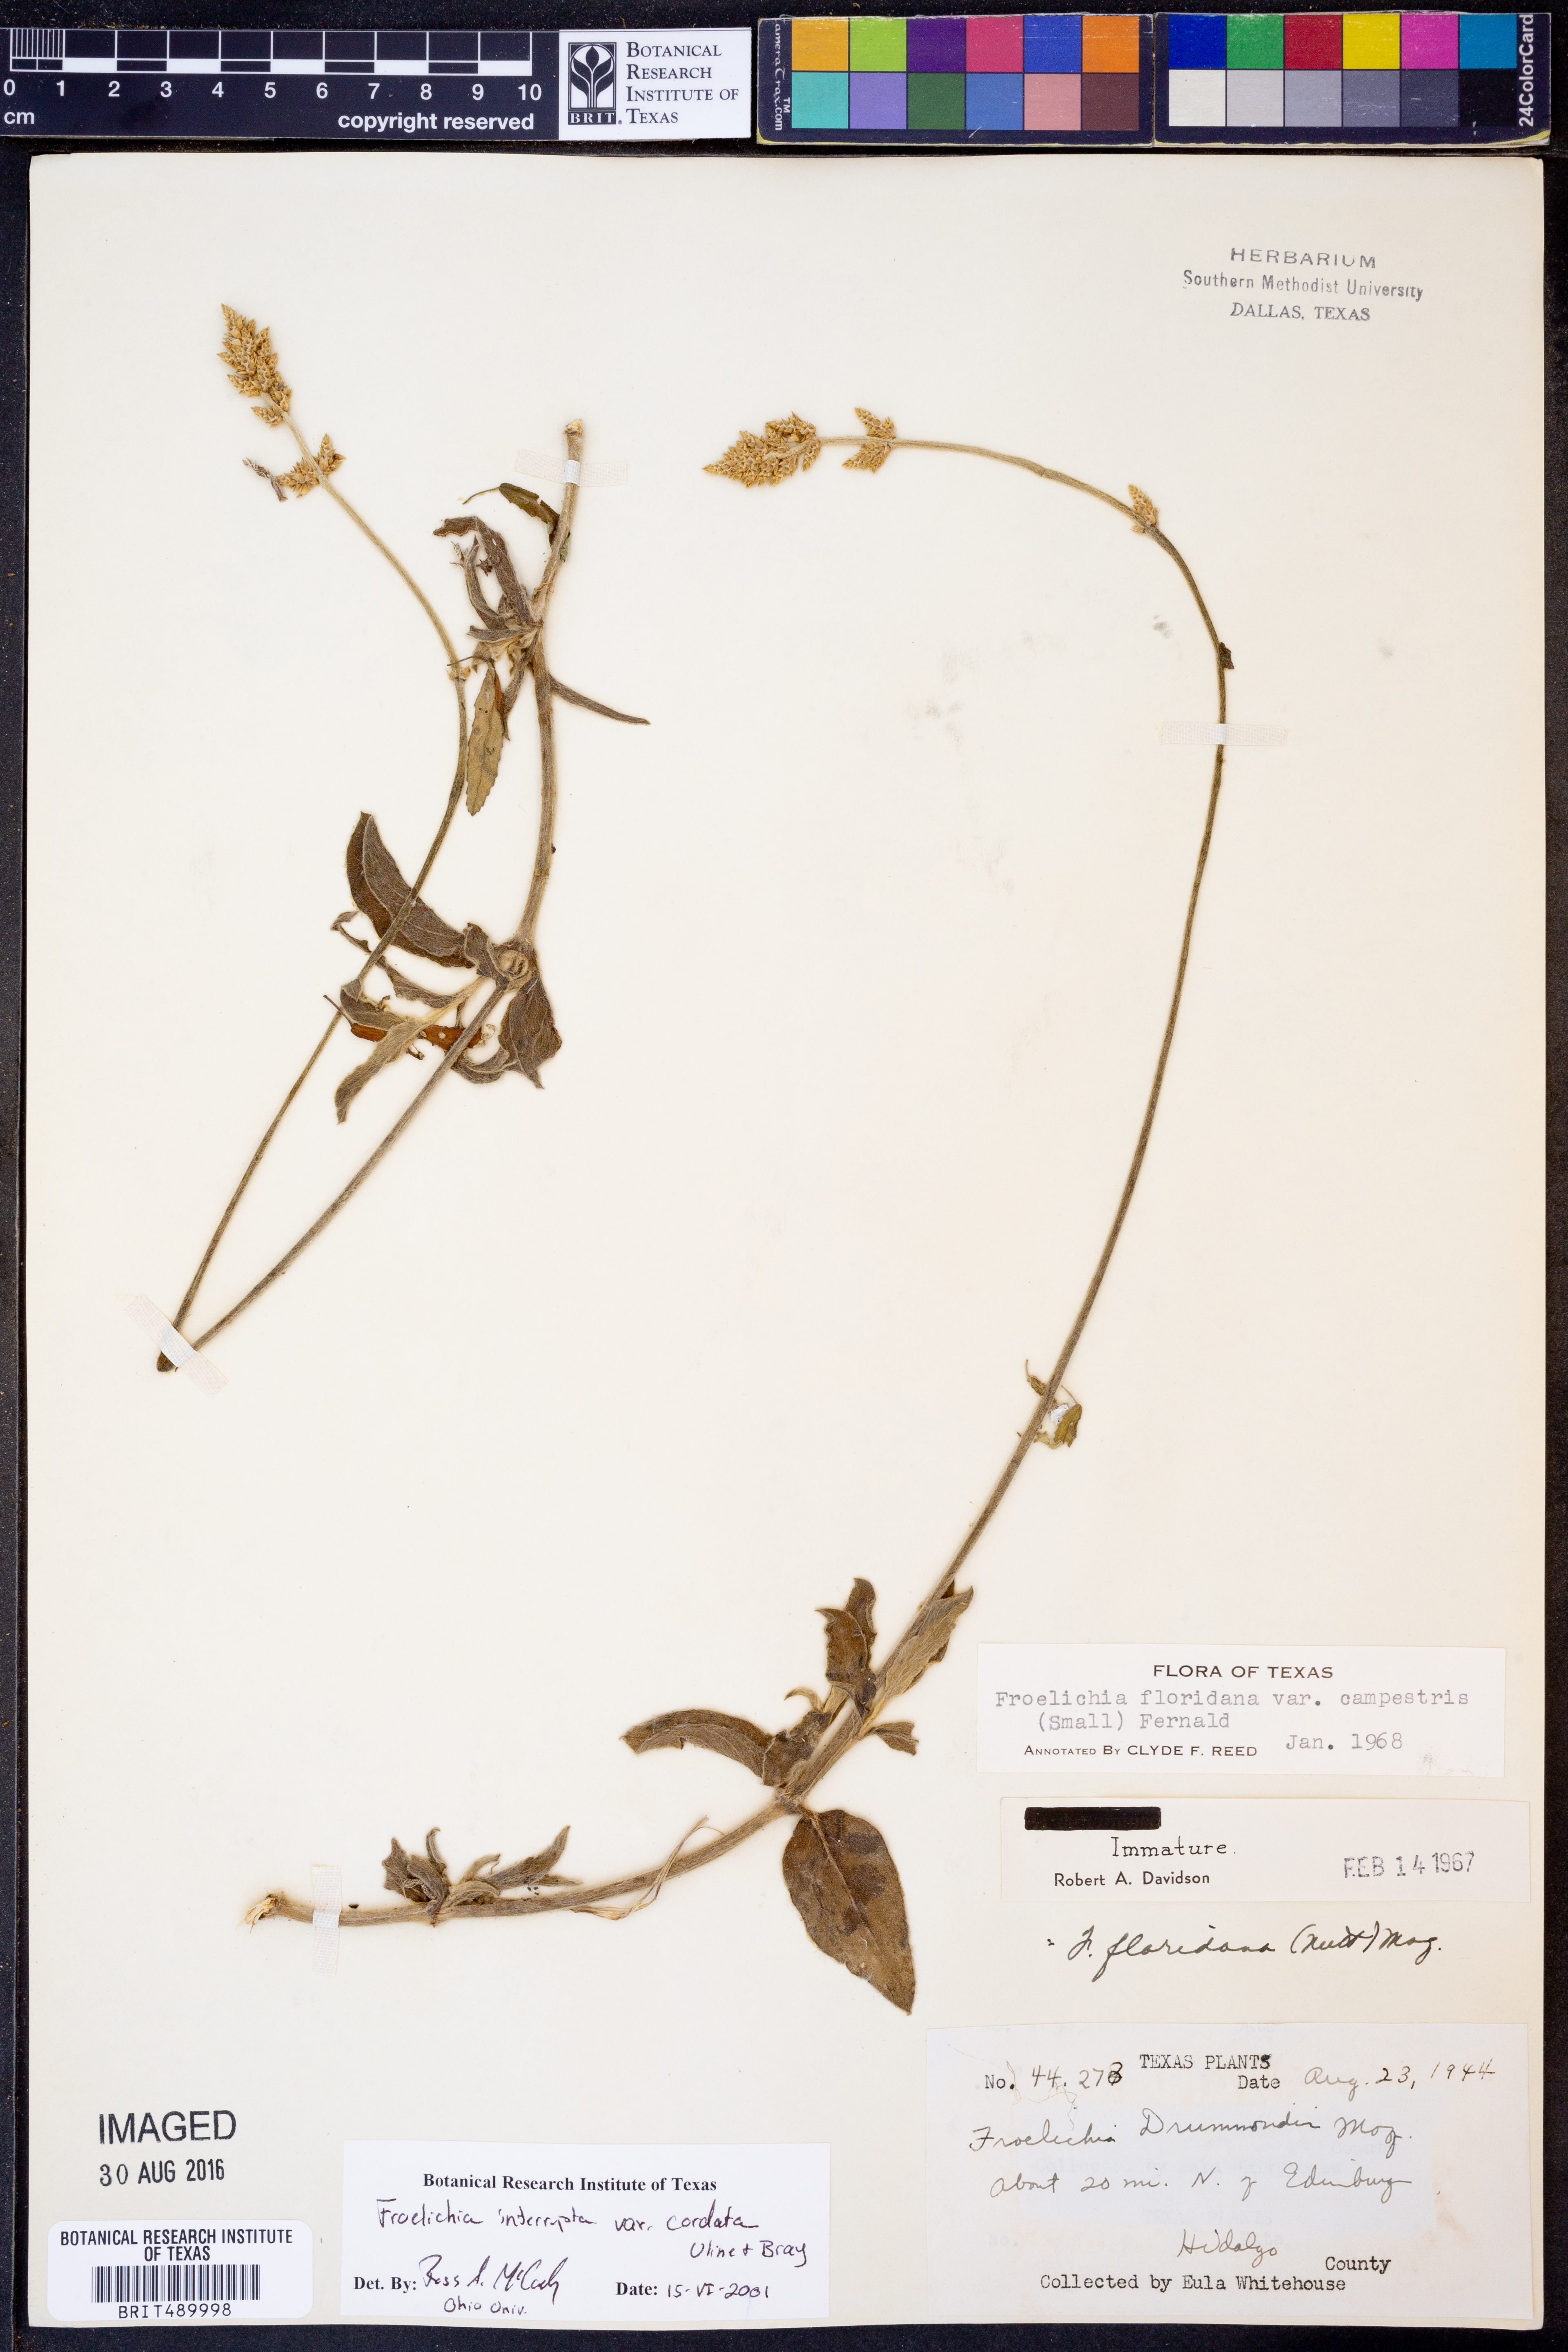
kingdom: Plantae
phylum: Tracheophyta
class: Magnoliopsida
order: Caryophyllales
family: Amaranthaceae
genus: Froelichia
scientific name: Froelichia texana
